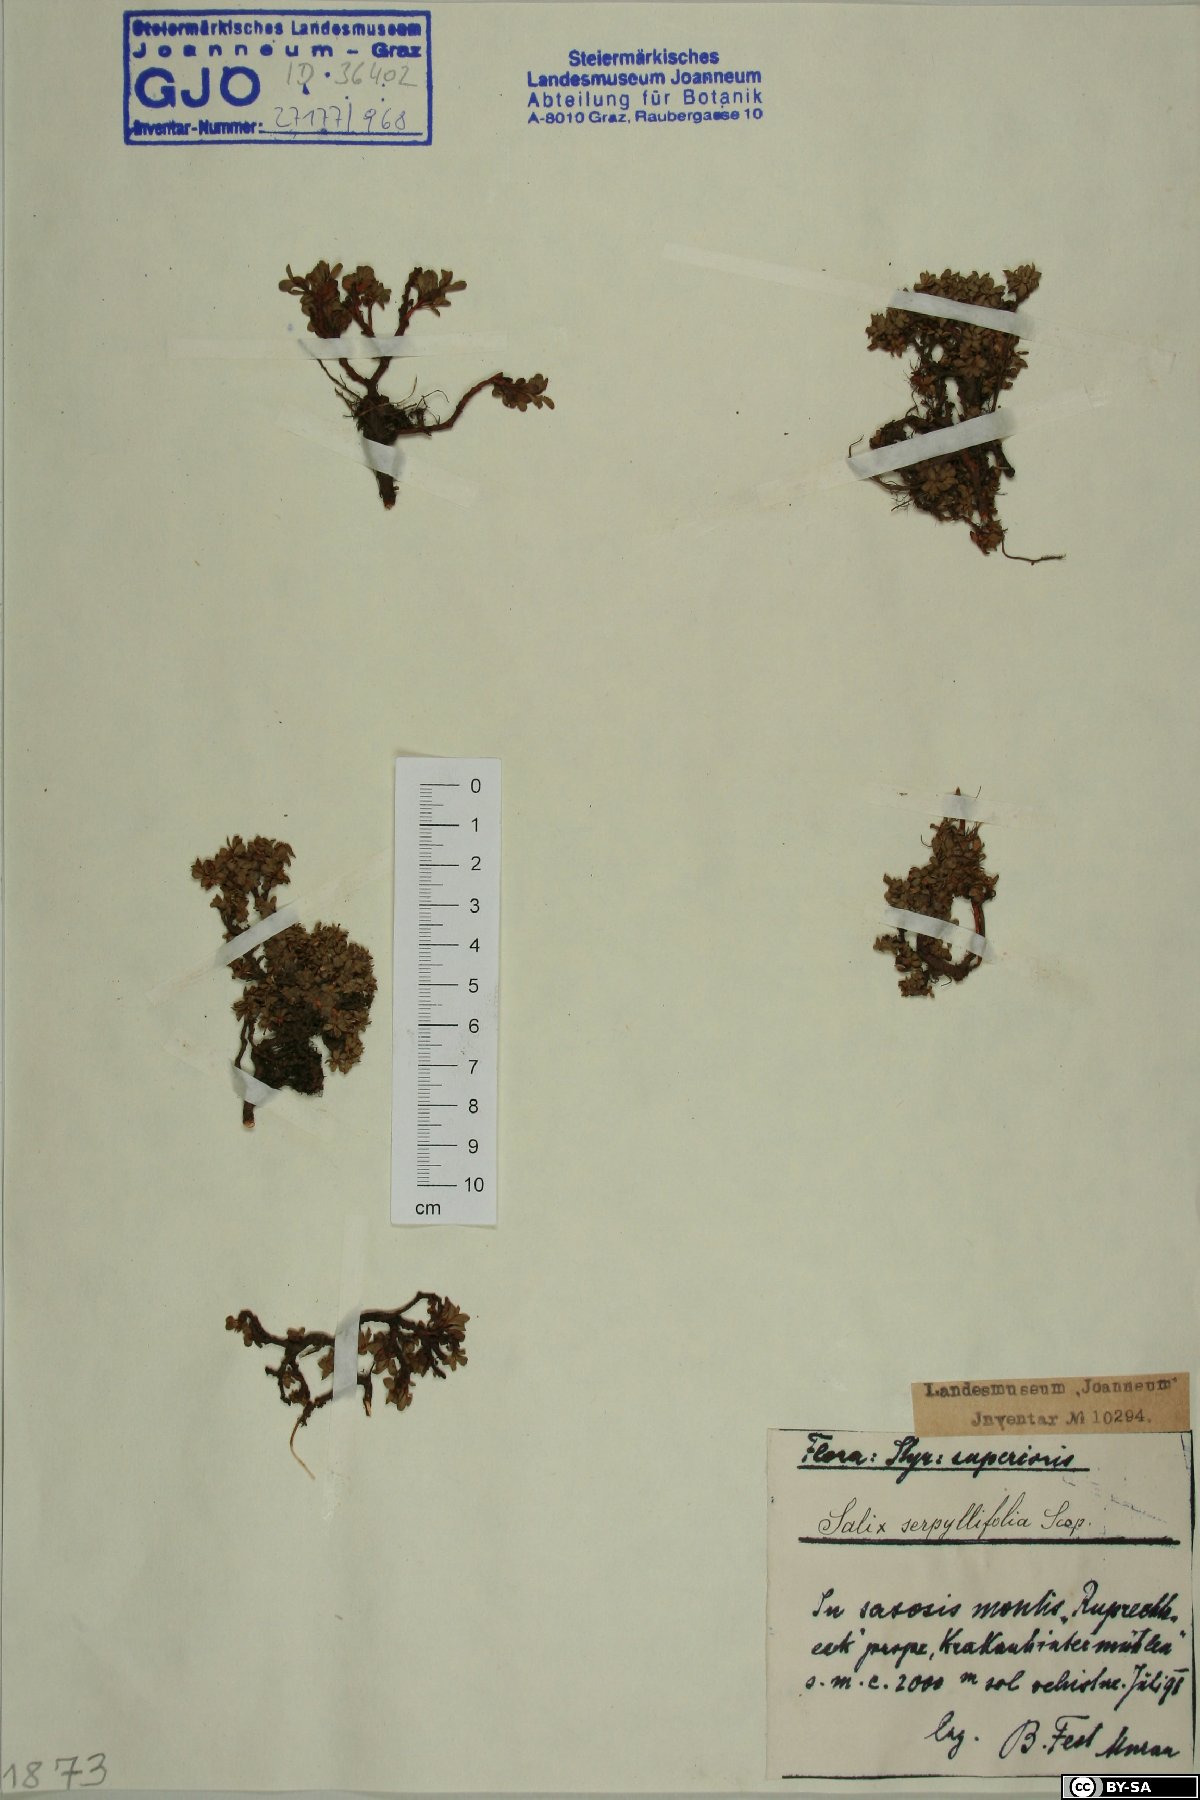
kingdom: Plantae
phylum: Tracheophyta
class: Magnoliopsida
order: Malpighiales
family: Salicaceae
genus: Salix
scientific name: Salix serpillifolia
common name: Thyme-leaf willow
